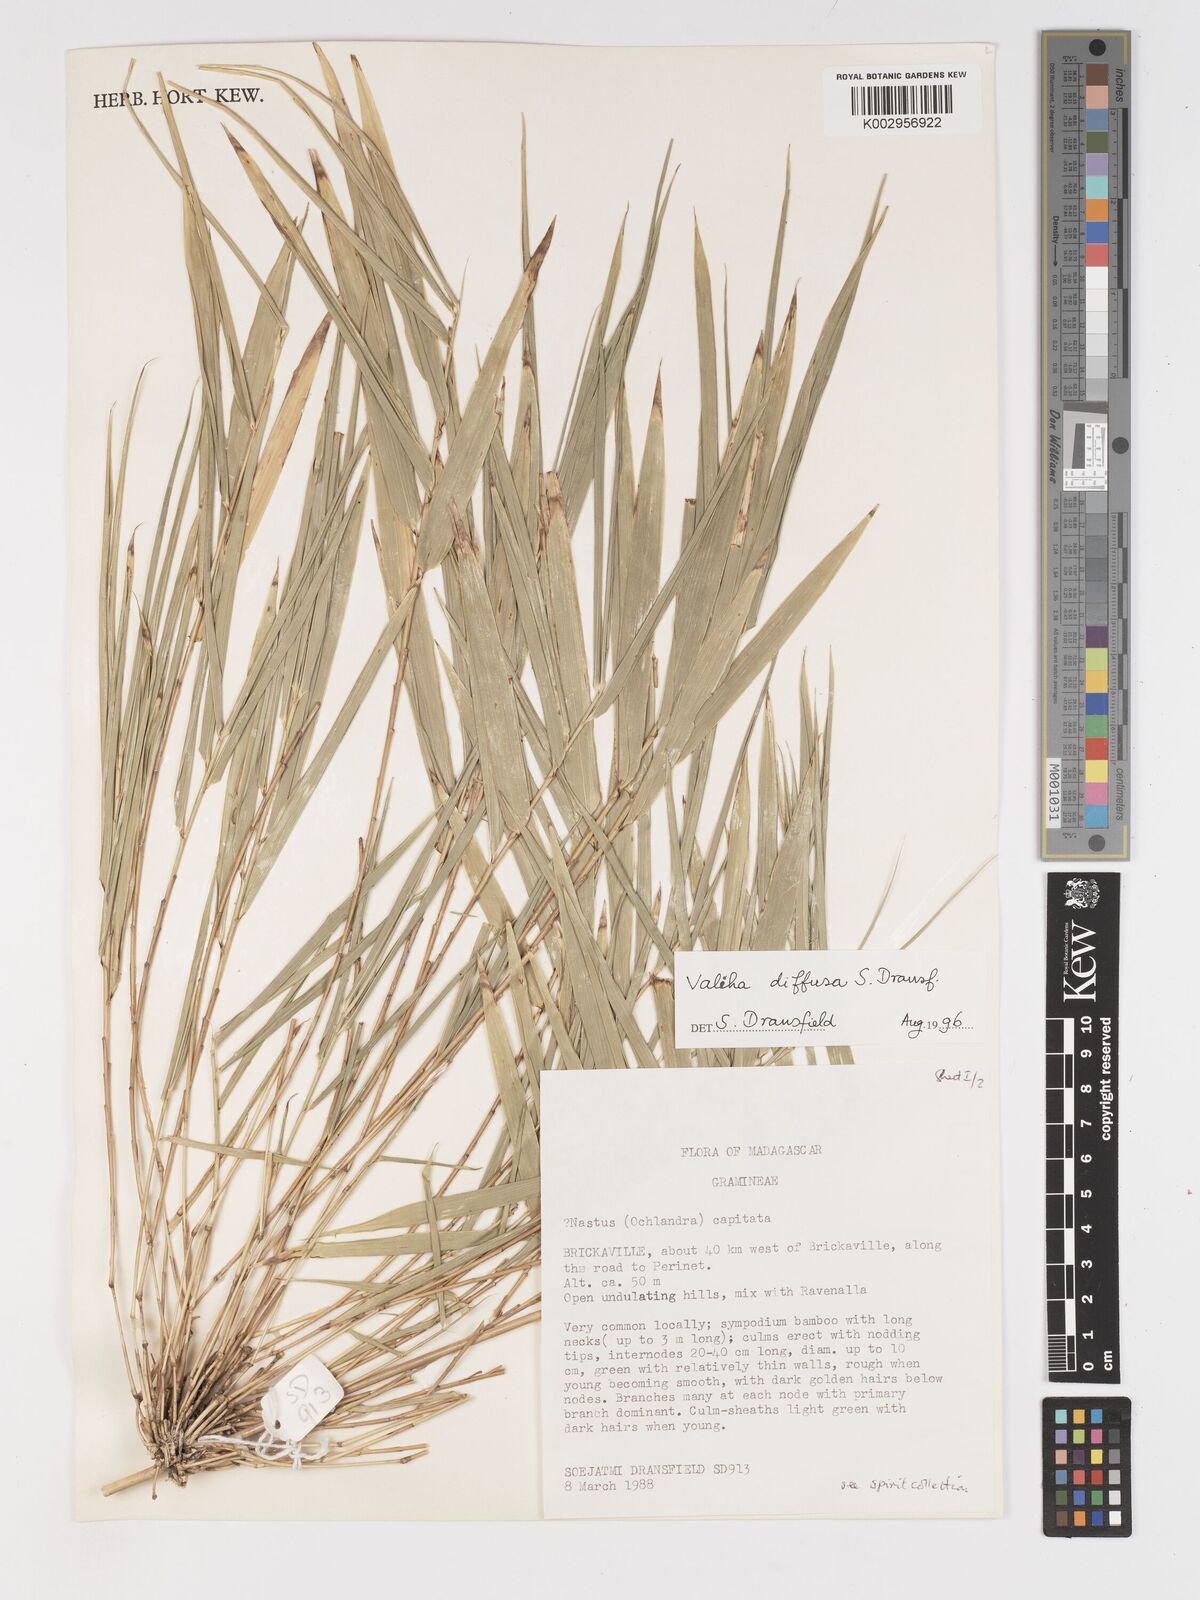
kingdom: Plantae
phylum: Tracheophyta
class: Liliopsida
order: Poales
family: Poaceae
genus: Valiha
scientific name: Valiha
